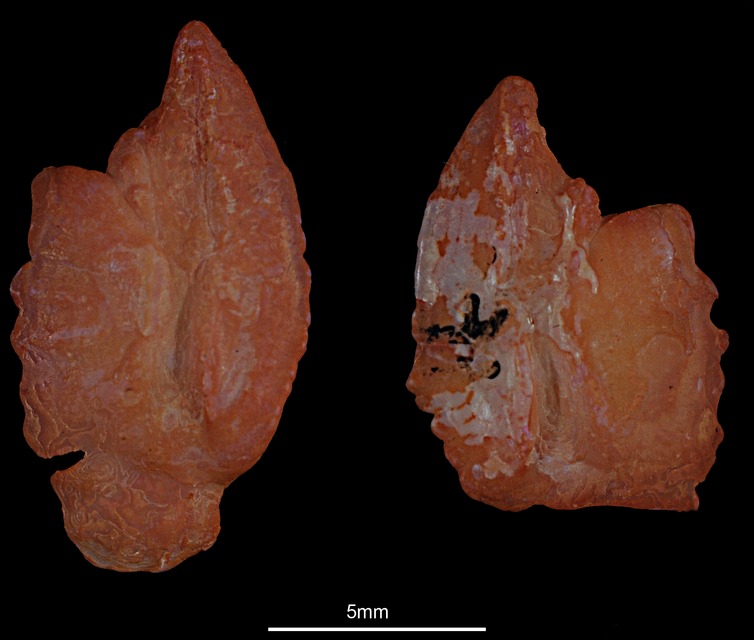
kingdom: Animalia
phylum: Chordata
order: Scorpaeniformes
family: Sebastidae
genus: Sebastes
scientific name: Sebastes norvegicus
